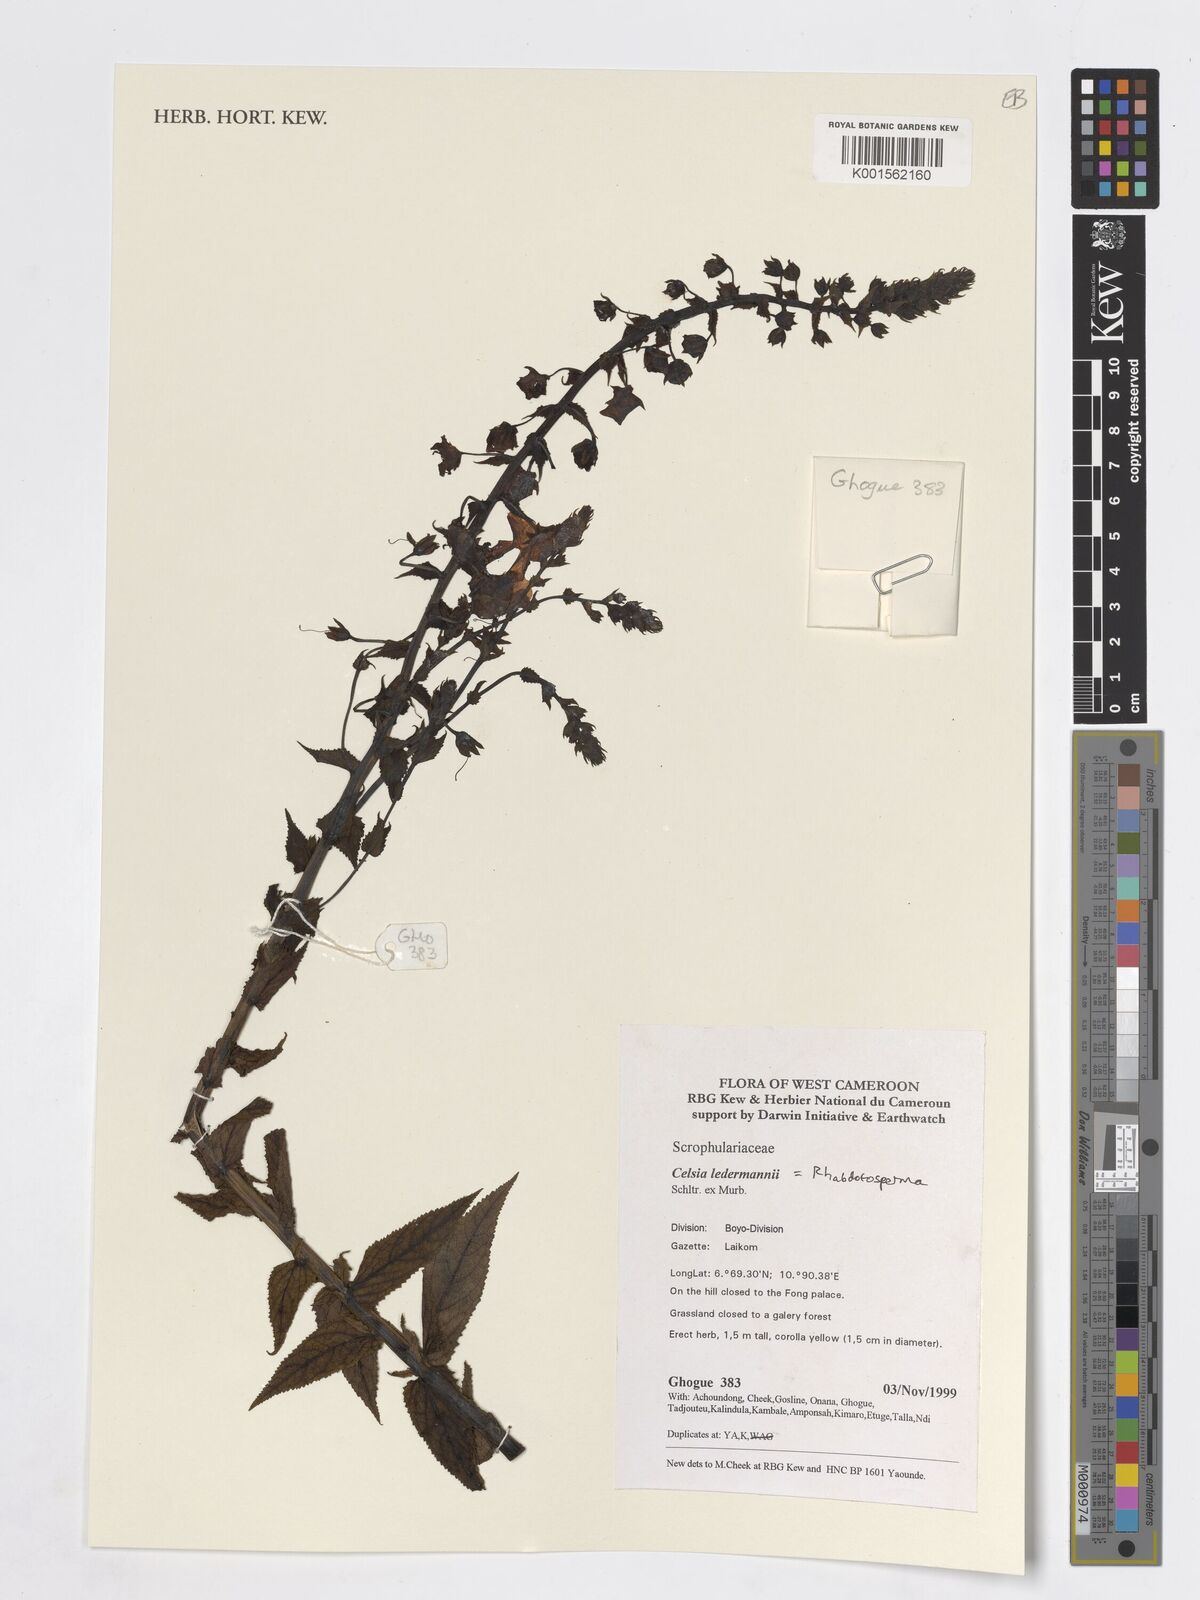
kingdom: Plantae
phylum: Tracheophyta
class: Magnoliopsida
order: Lamiales
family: Scrophulariaceae
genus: Rhabdotosperma
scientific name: Rhabdotosperma ledermannii
